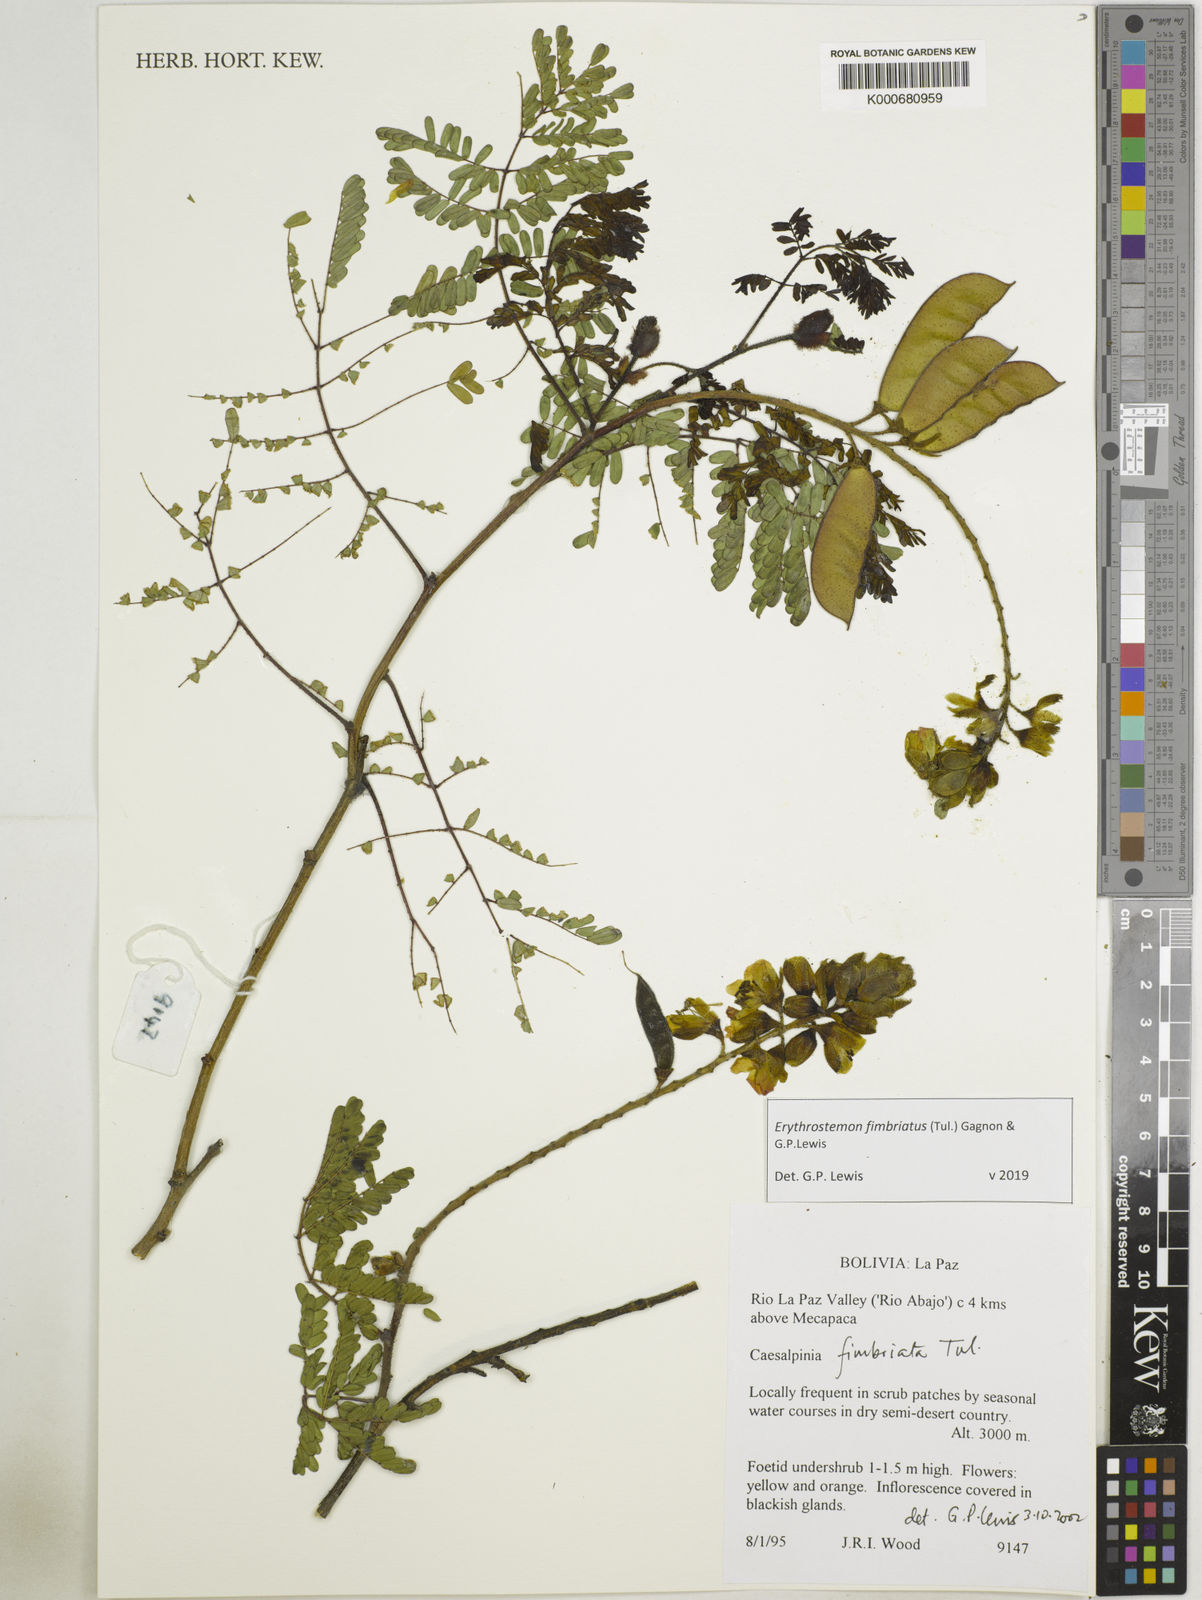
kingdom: Plantae
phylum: Tracheophyta
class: Magnoliopsida
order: Fabales
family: Fabaceae
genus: Erythrostemon
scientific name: Erythrostemon fimbriatus
